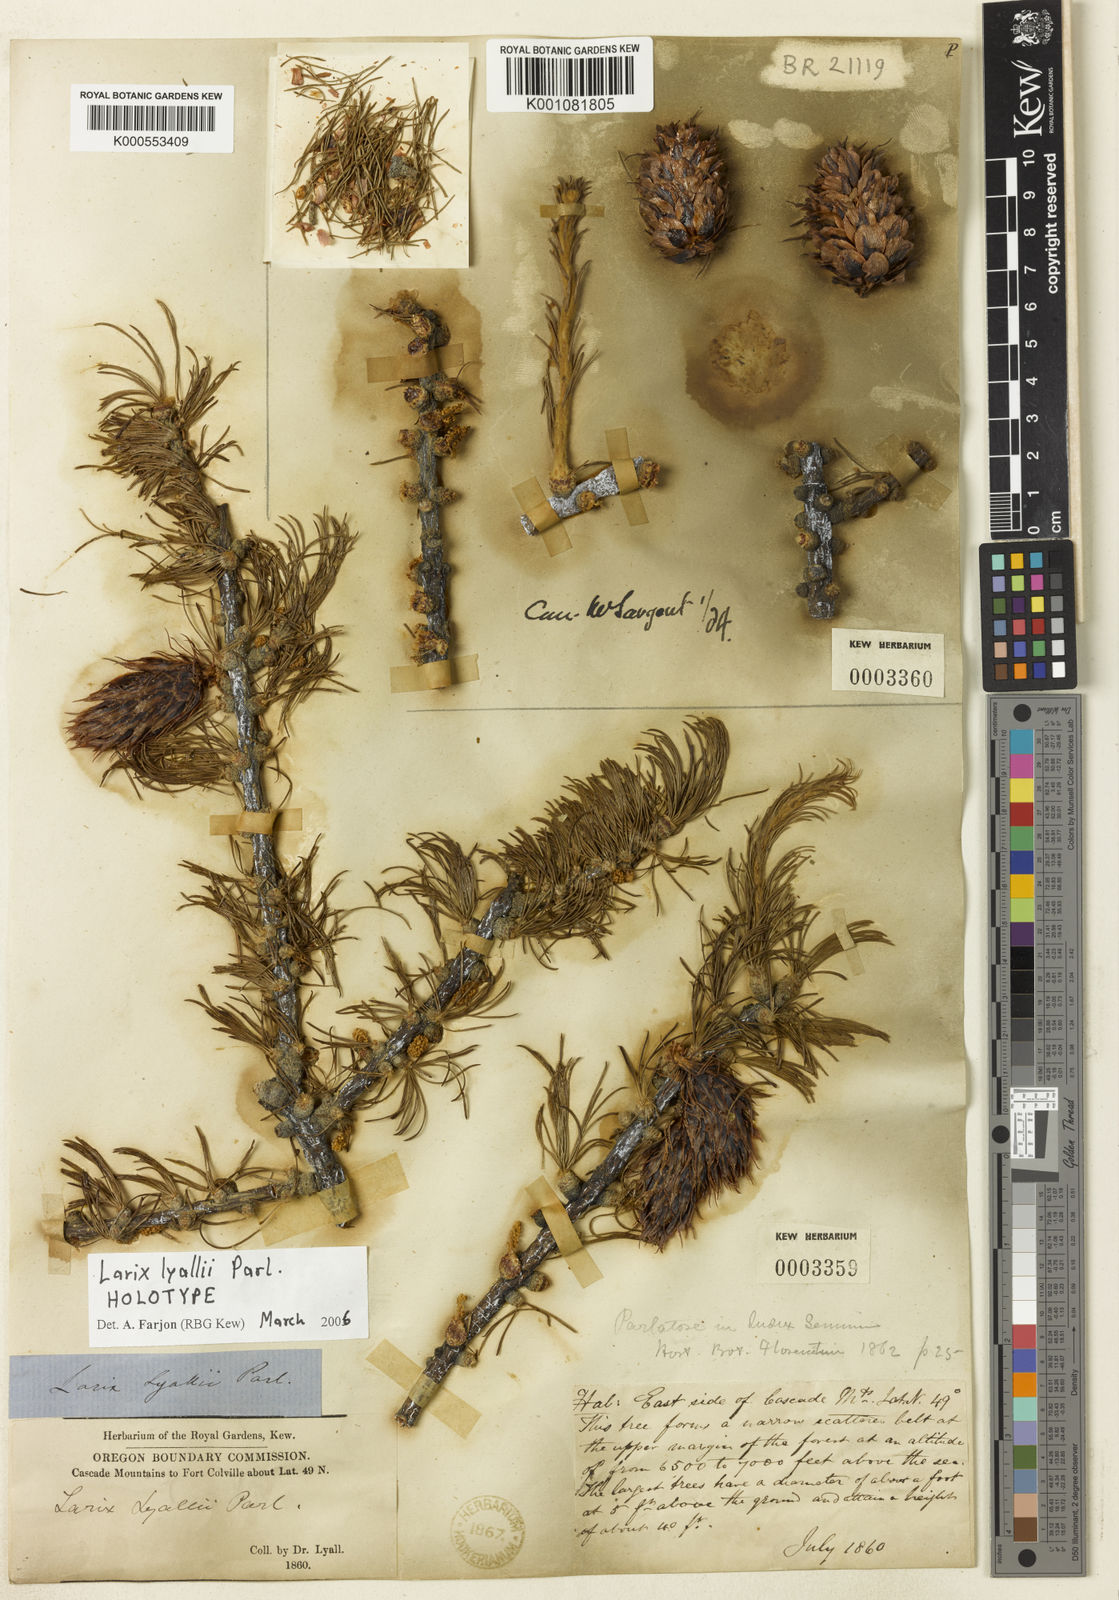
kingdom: Plantae
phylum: Tracheophyta
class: Pinopsida
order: Pinales
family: Pinaceae
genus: Larix
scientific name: Larix lyallii
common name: Alpine larch
